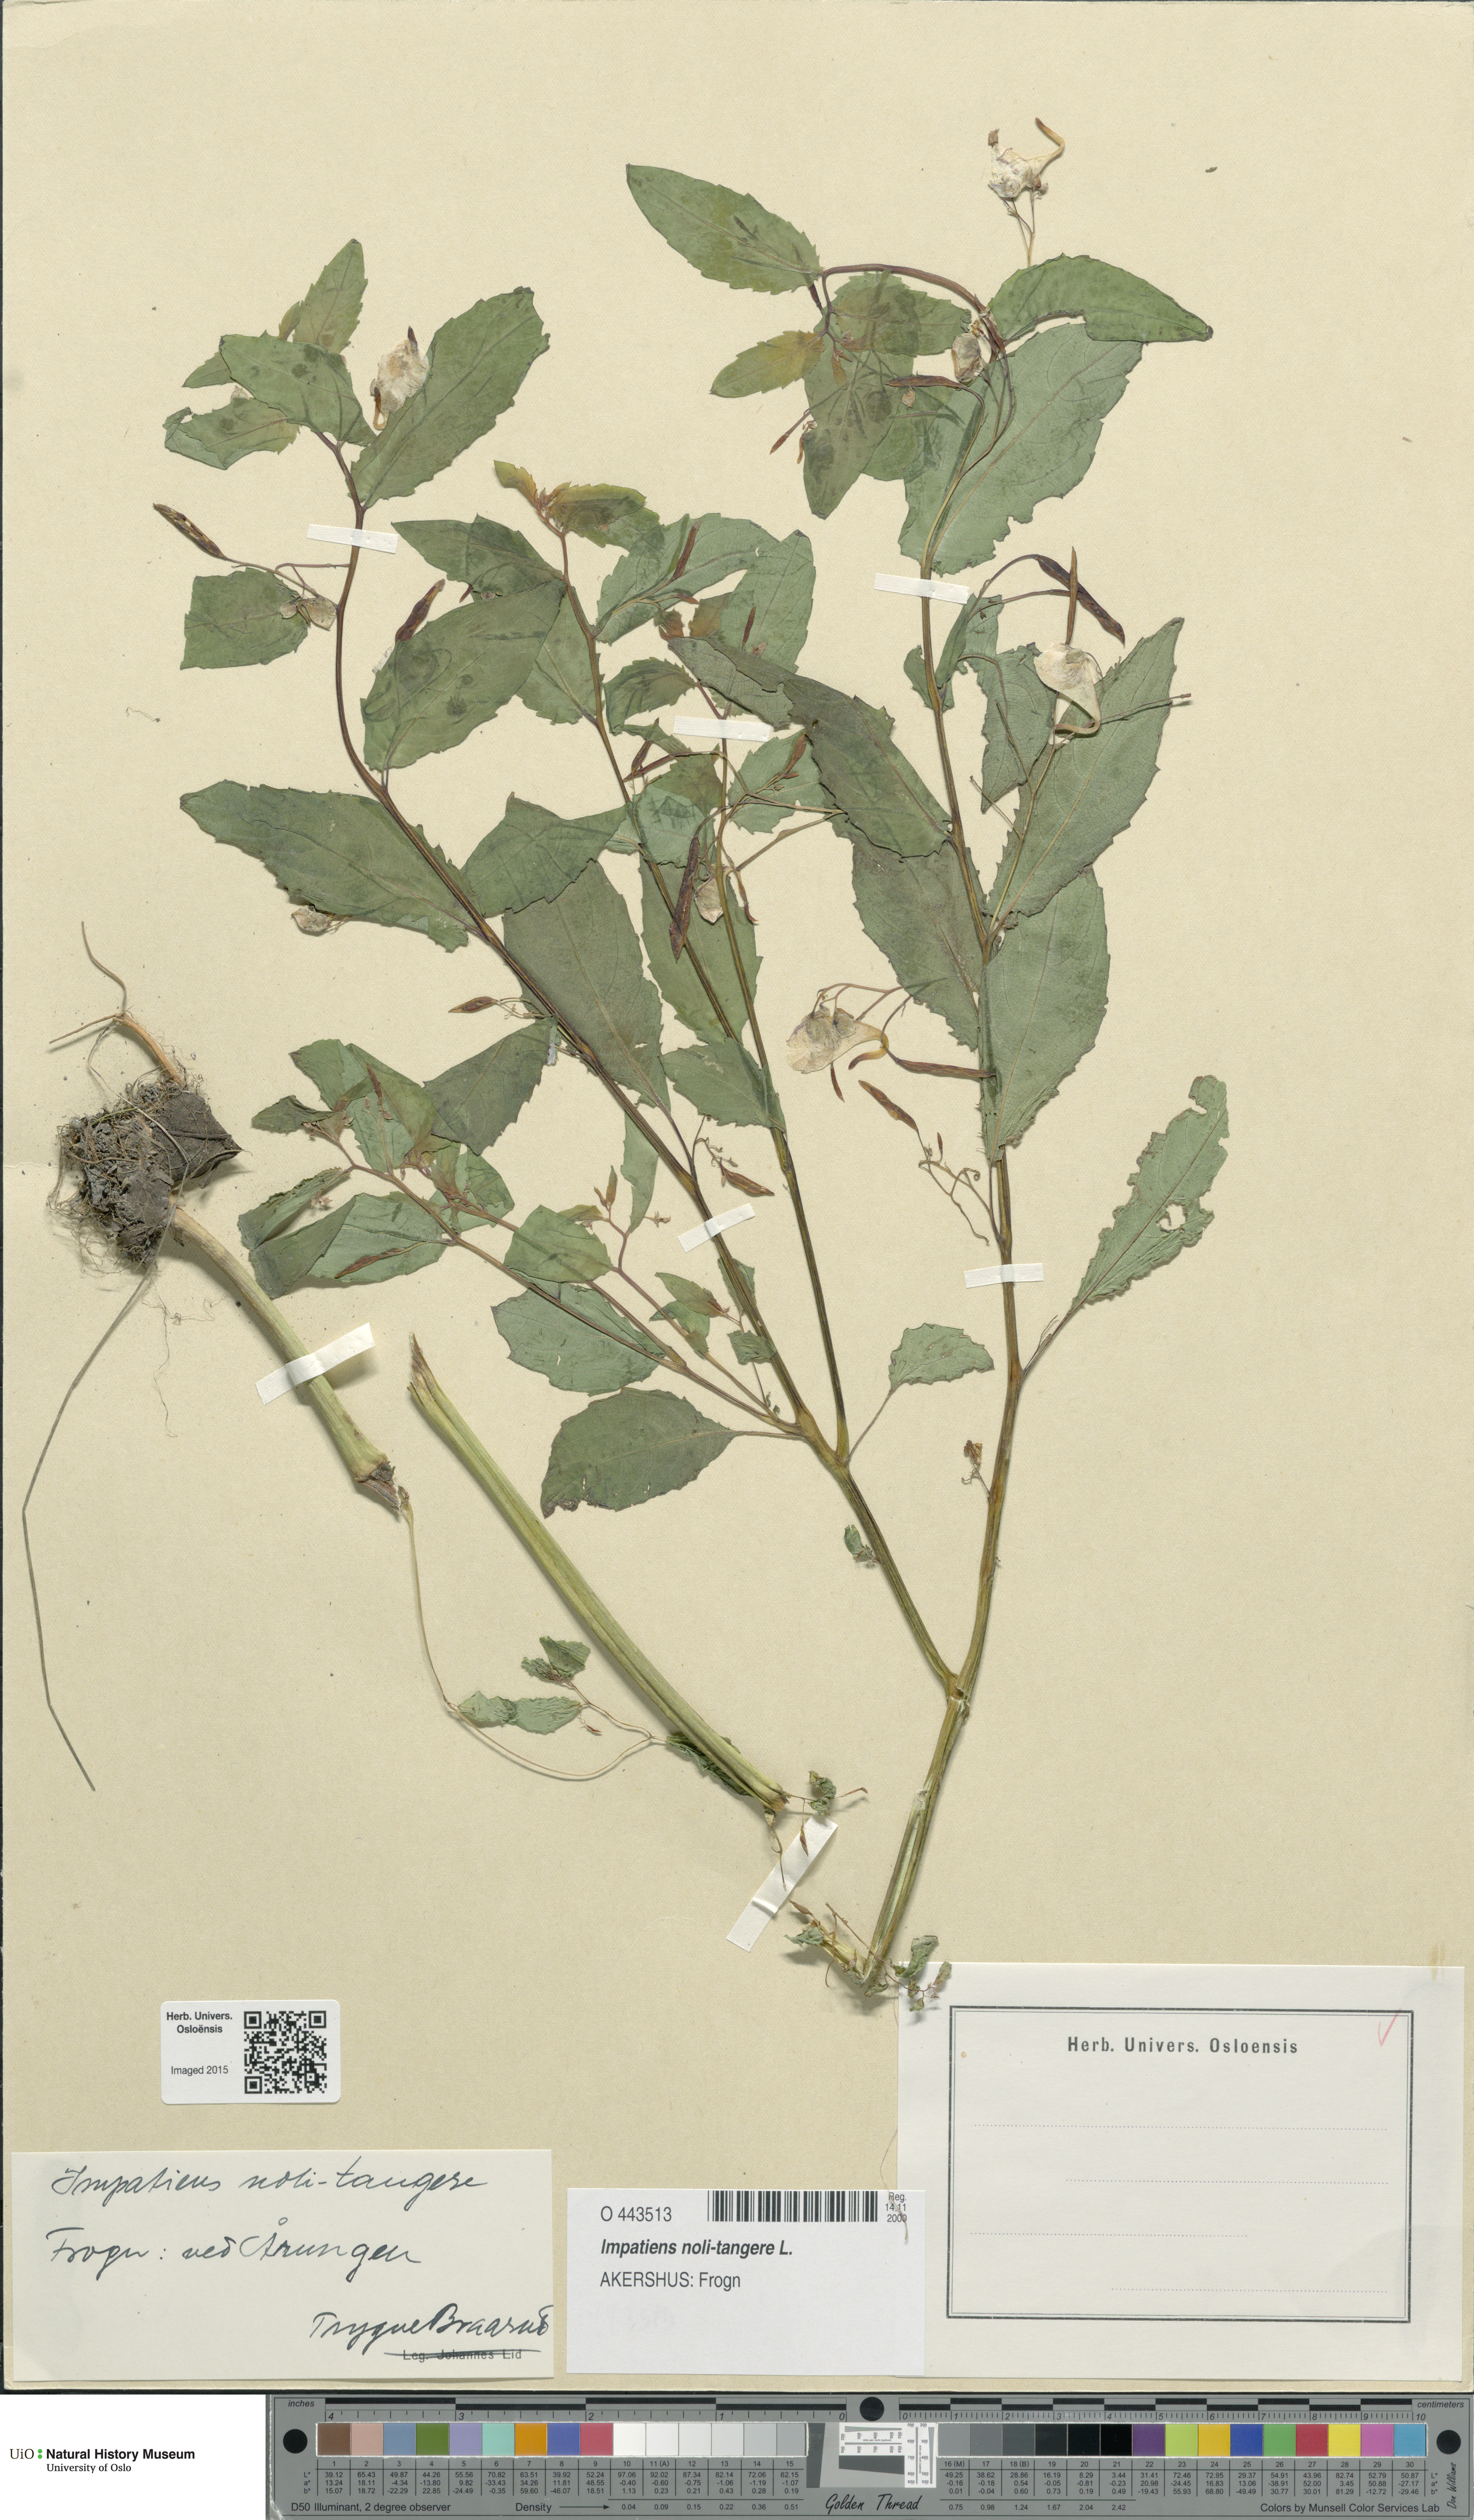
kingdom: Plantae
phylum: Tracheophyta
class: Magnoliopsida
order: Ericales
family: Balsaminaceae
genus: Impatiens
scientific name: Impatiens noli-tangere
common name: Touch-me-not balsam
